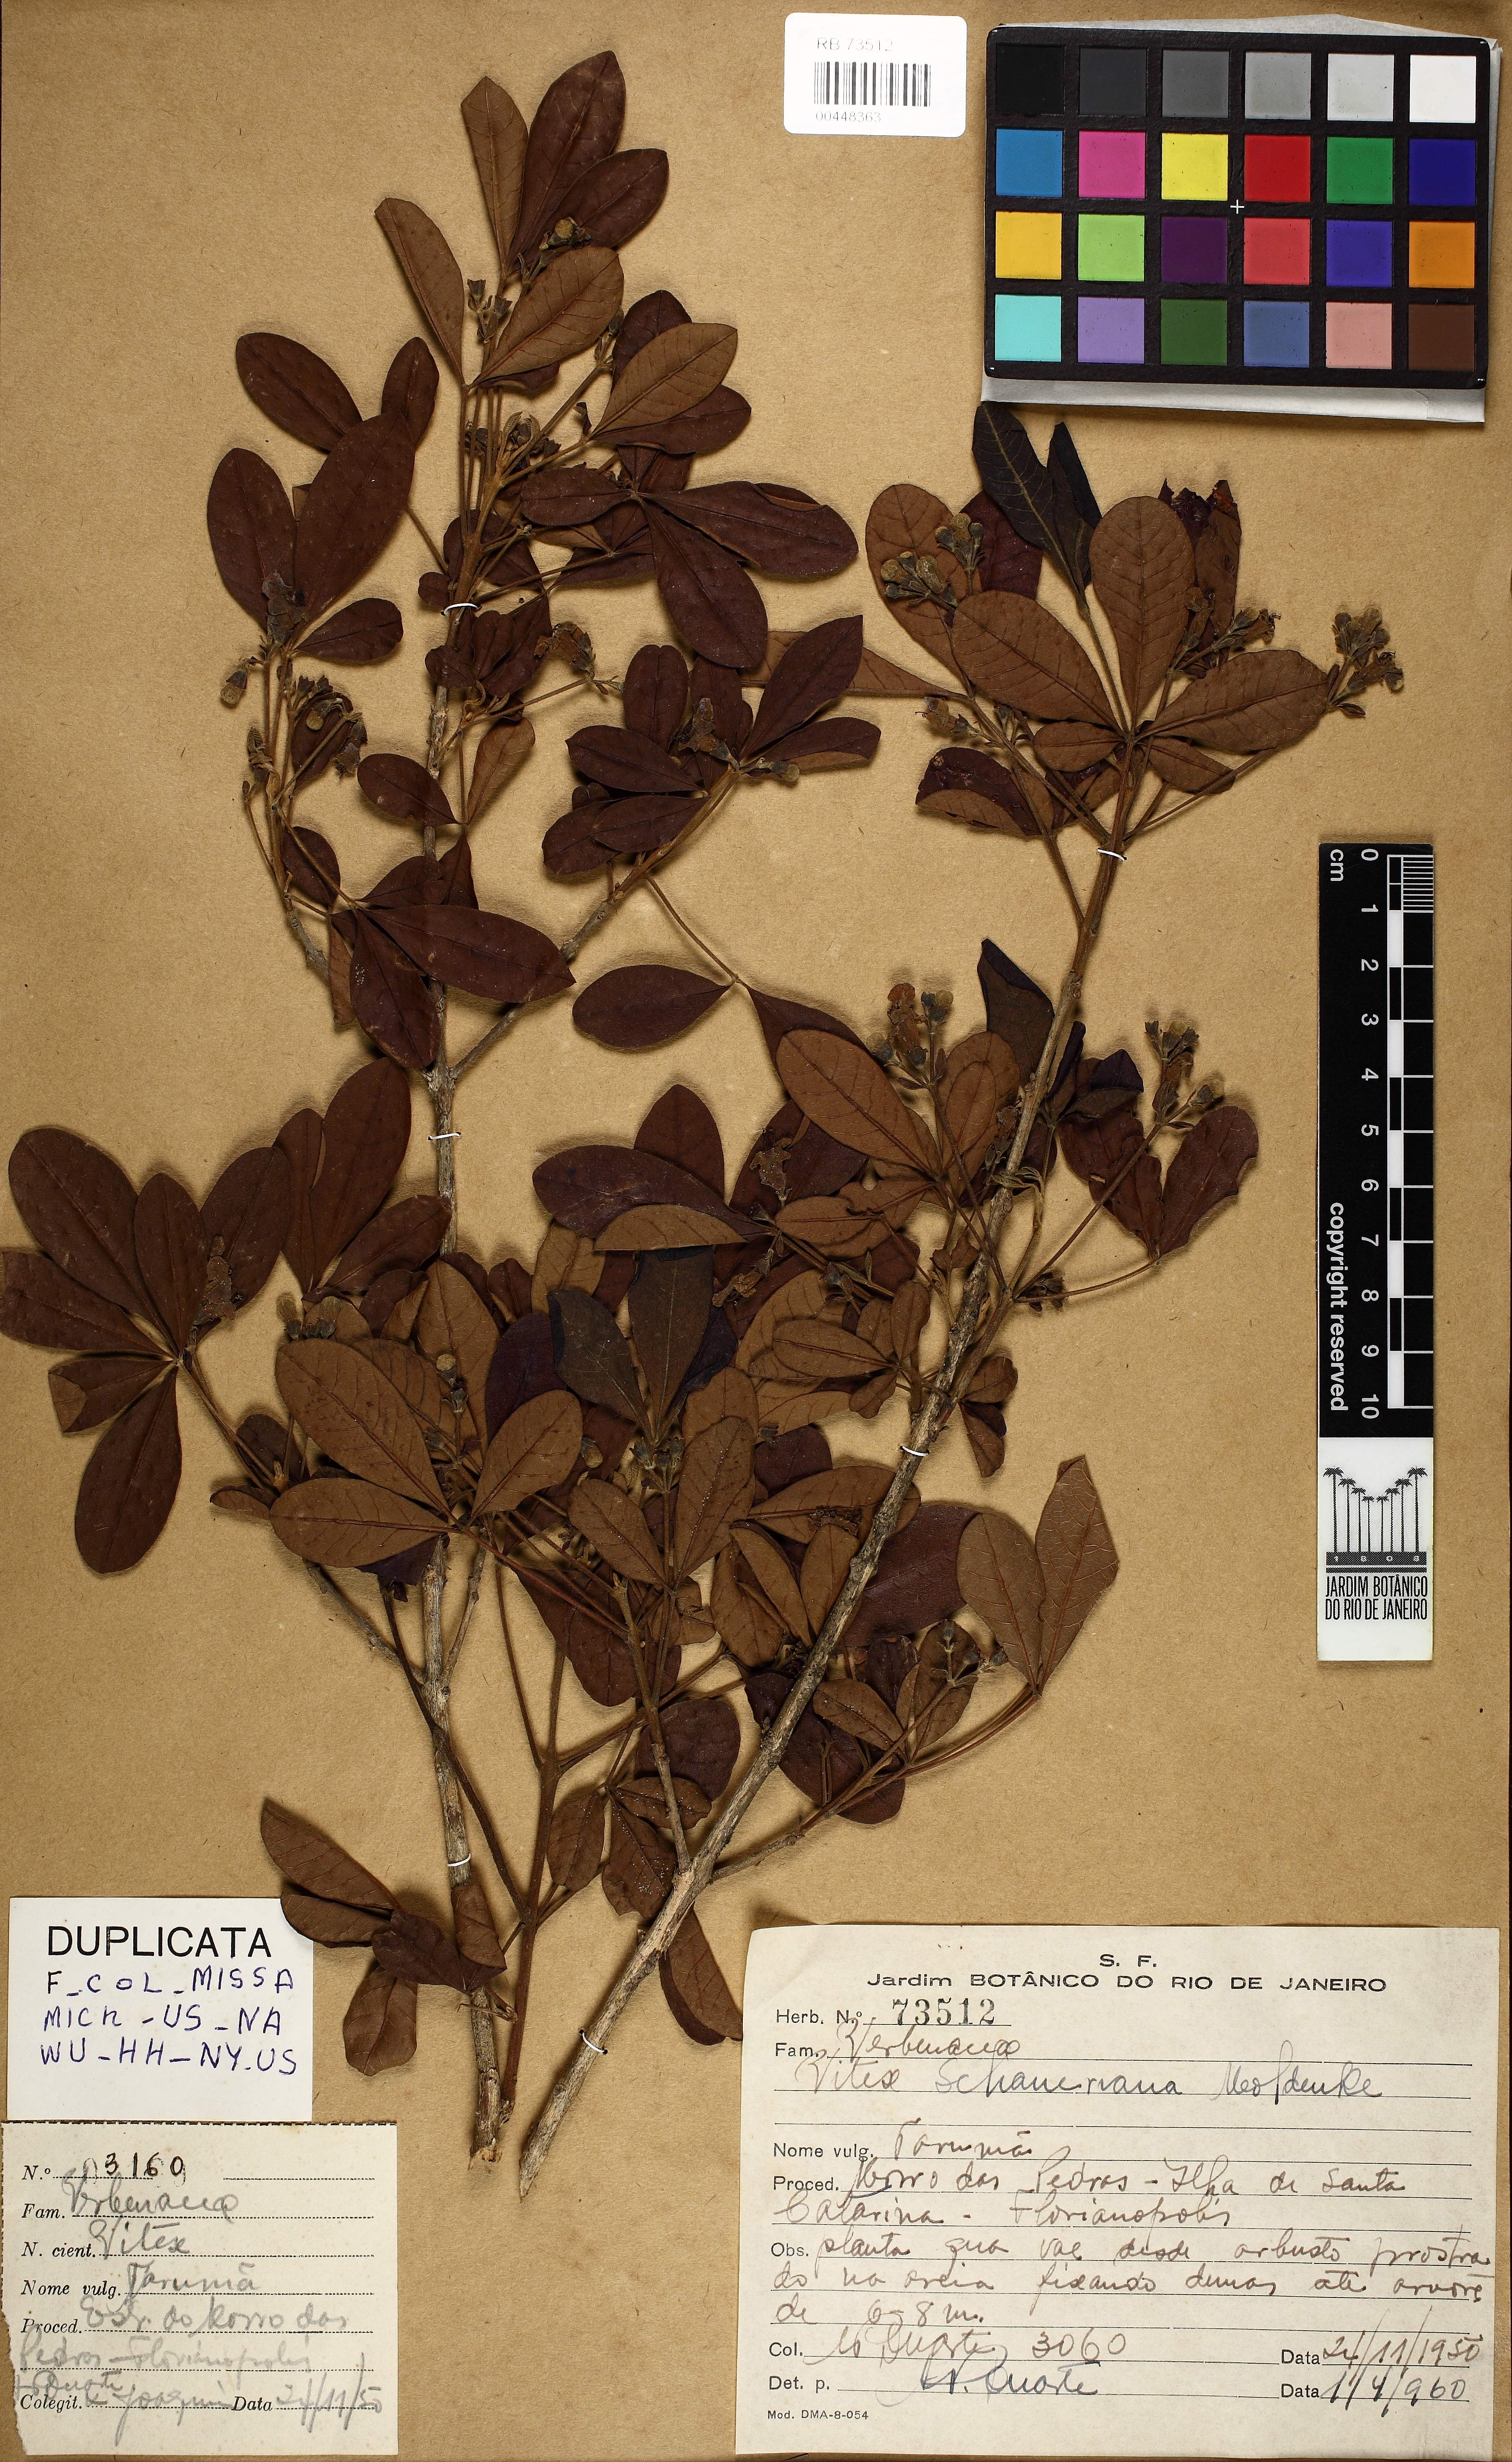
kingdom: Plantae
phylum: Tracheophyta
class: Magnoliopsida
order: Lamiales
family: Lamiaceae
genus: Vitex
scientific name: Vitex schaueriana
